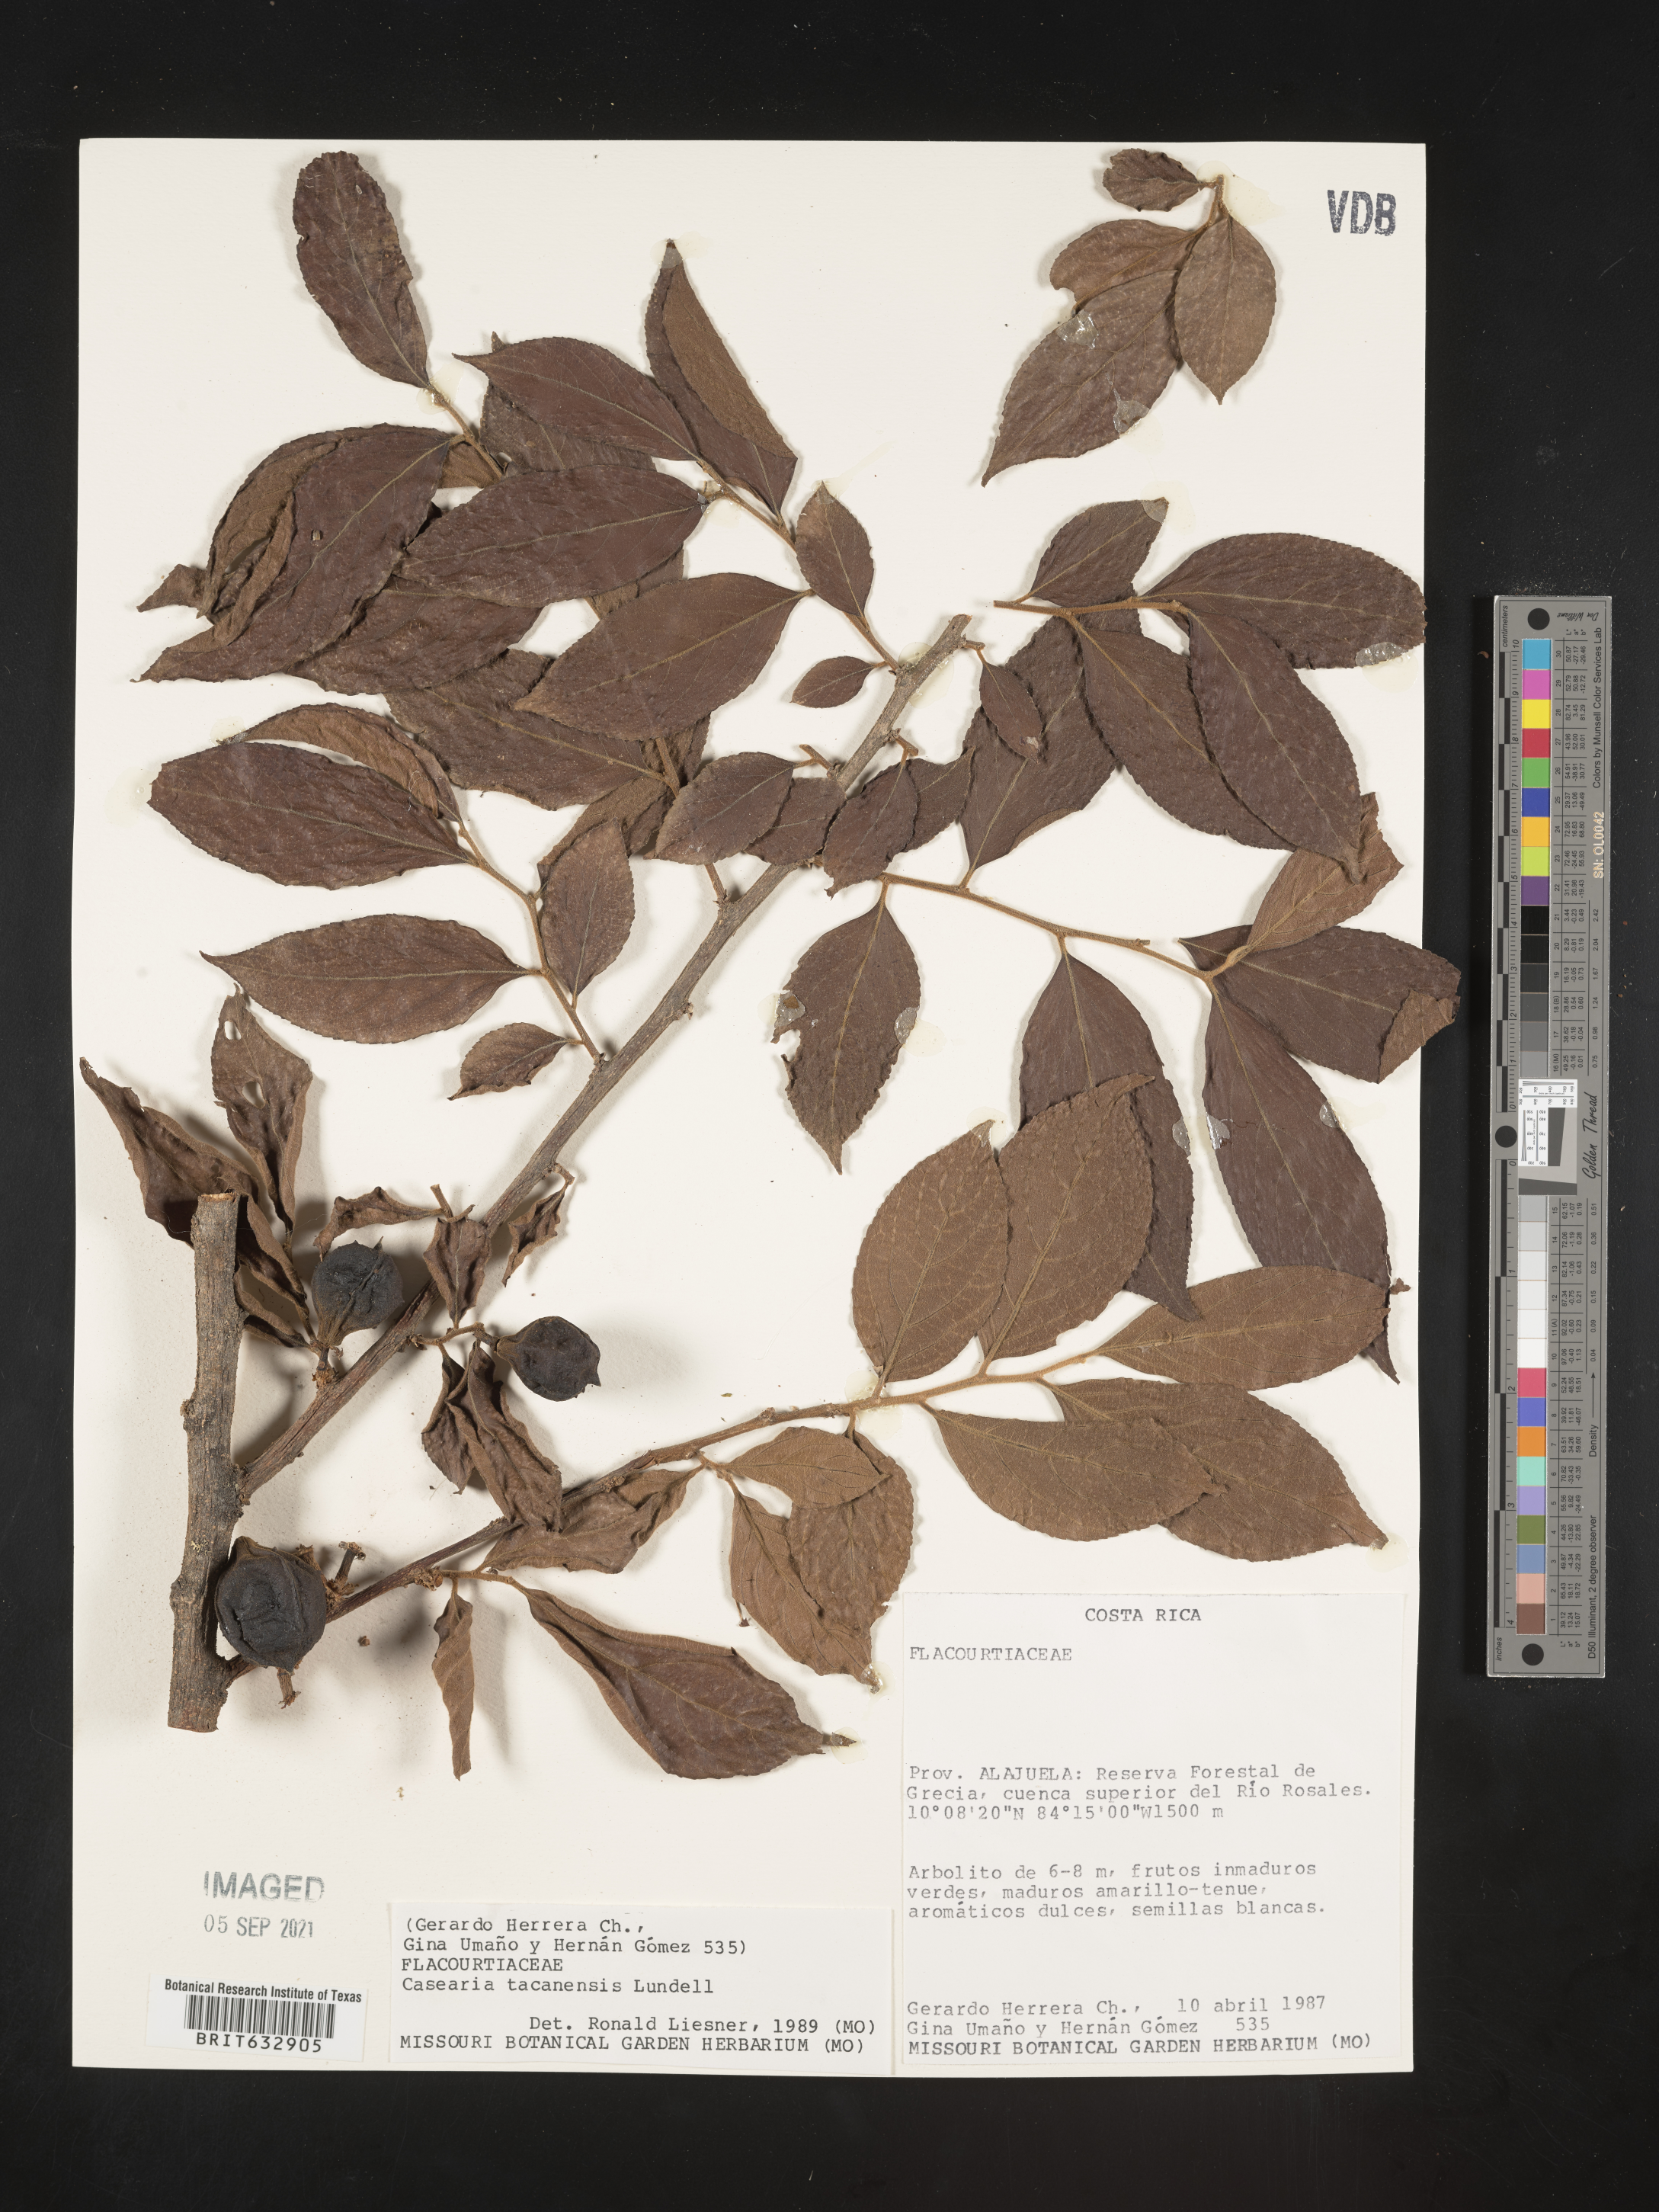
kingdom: Plantae
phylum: Tracheophyta
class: Magnoliopsida
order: Malpighiales
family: Salicaceae
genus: Casearia
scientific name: Casearia
